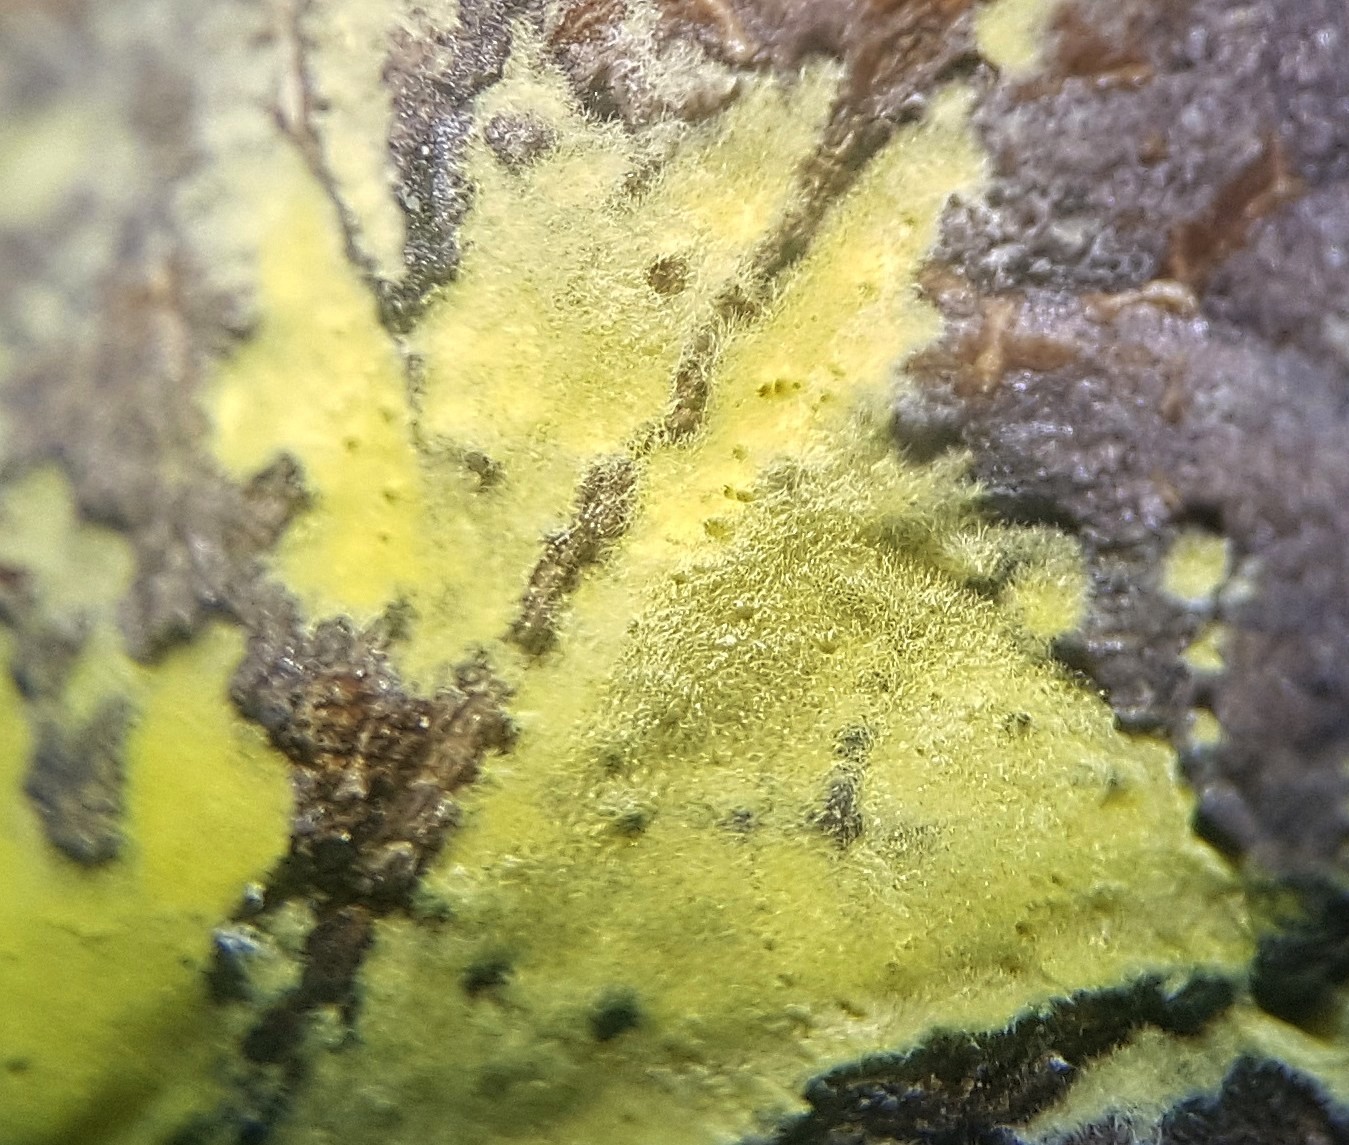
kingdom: Fungi
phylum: Ascomycota
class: Sordariomycetes
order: Hypocreales
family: Cylindriaceae
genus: Cylindrium
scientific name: Cylindrium aeruginosum
